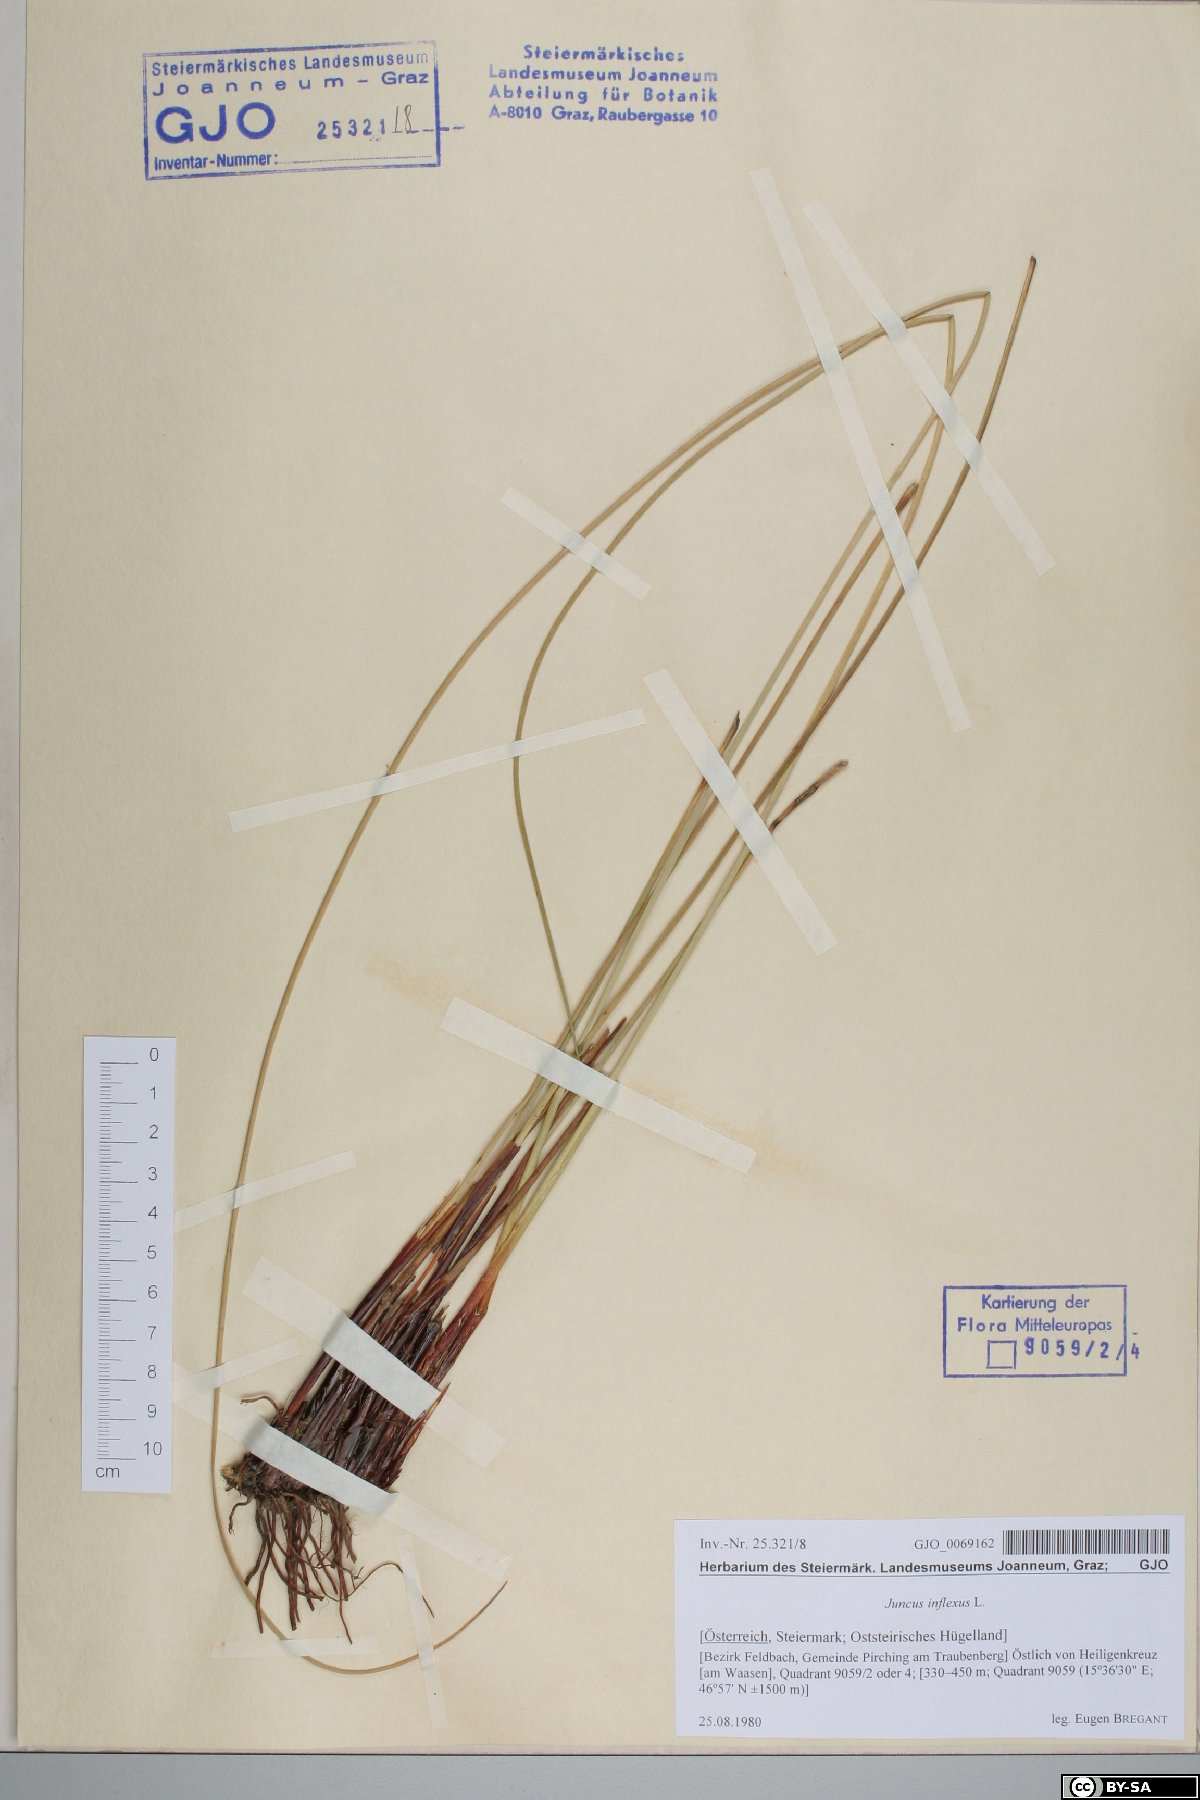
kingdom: Plantae
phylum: Tracheophyta
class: Liliopsida
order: Poales
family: Juncaceae
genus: Juncus
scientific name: Juncus inflexus
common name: Hard rush
